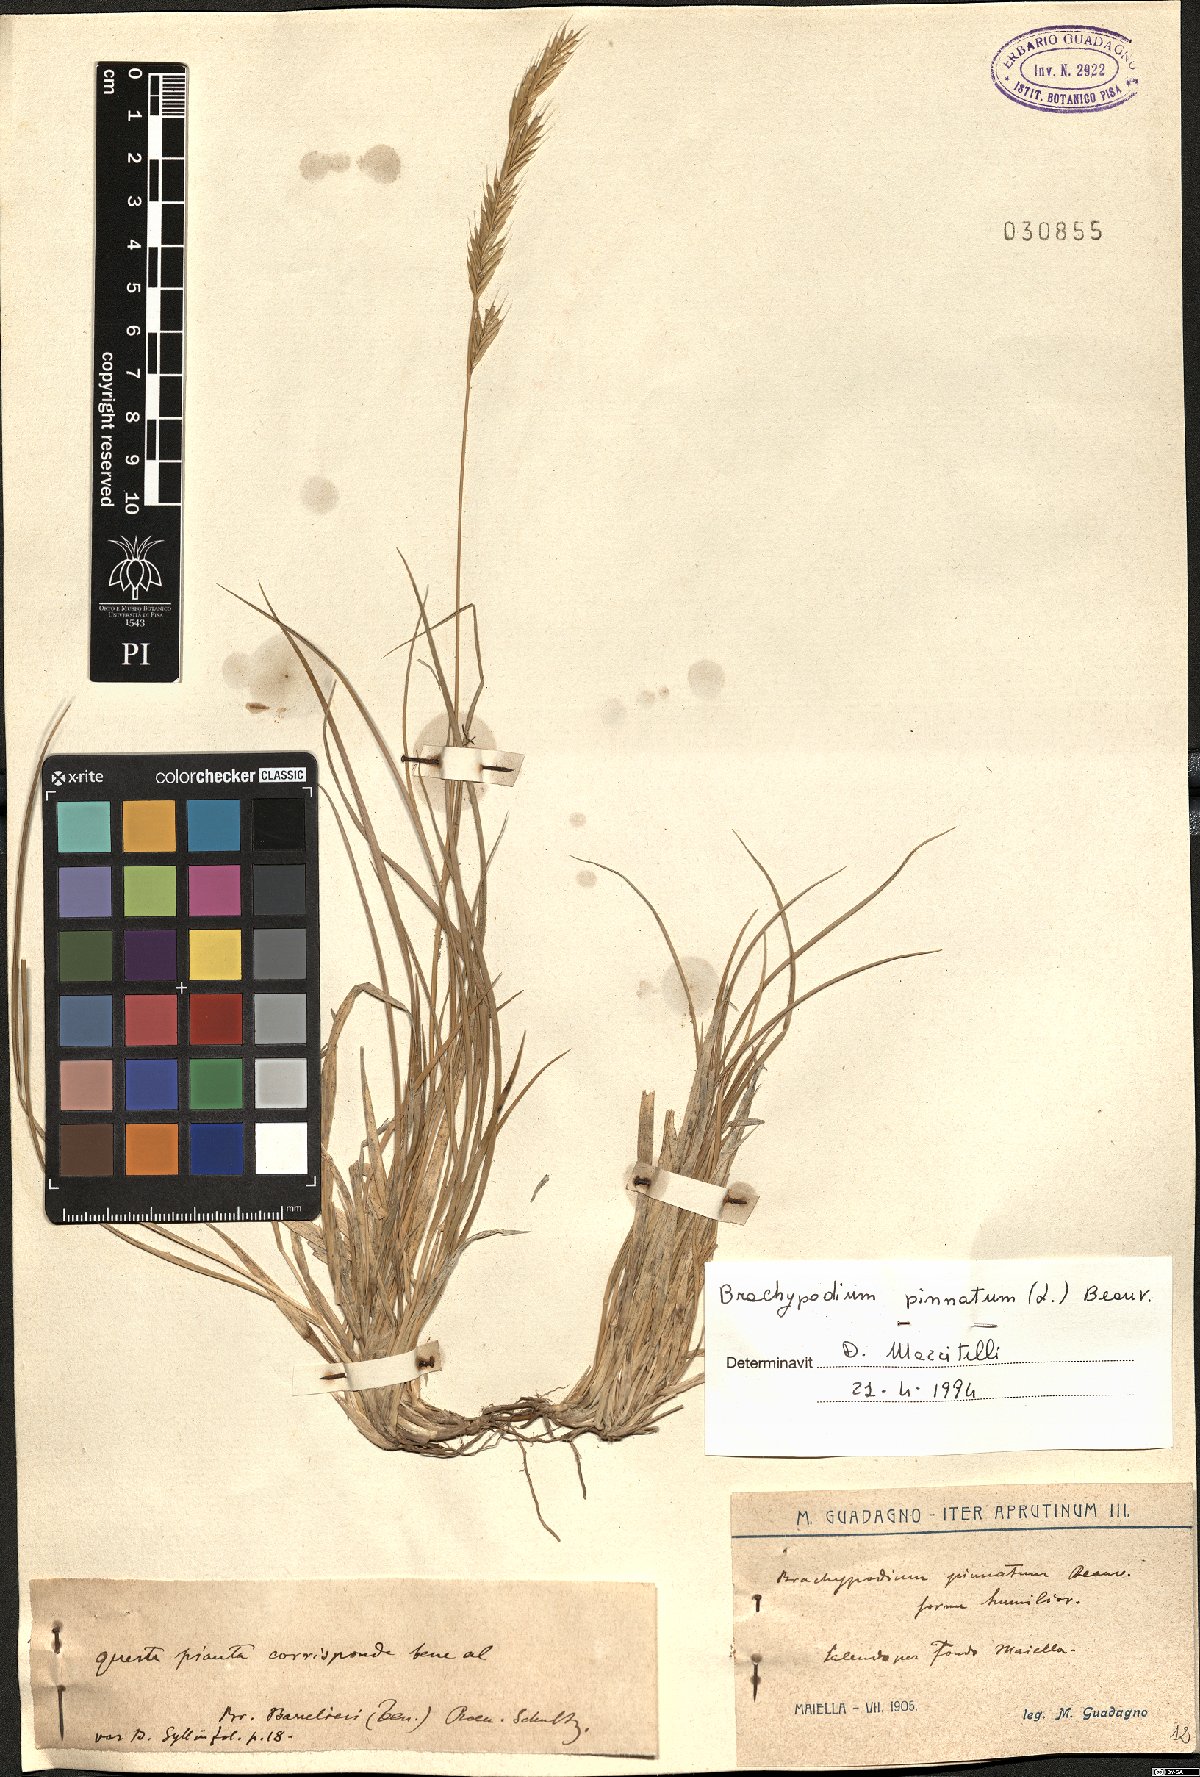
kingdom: Plantae
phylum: Tracheophyta
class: Liliopsida
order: Poales
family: Poaceae
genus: Brachypodium
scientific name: Brachypodium pinnatum
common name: Tor grass
